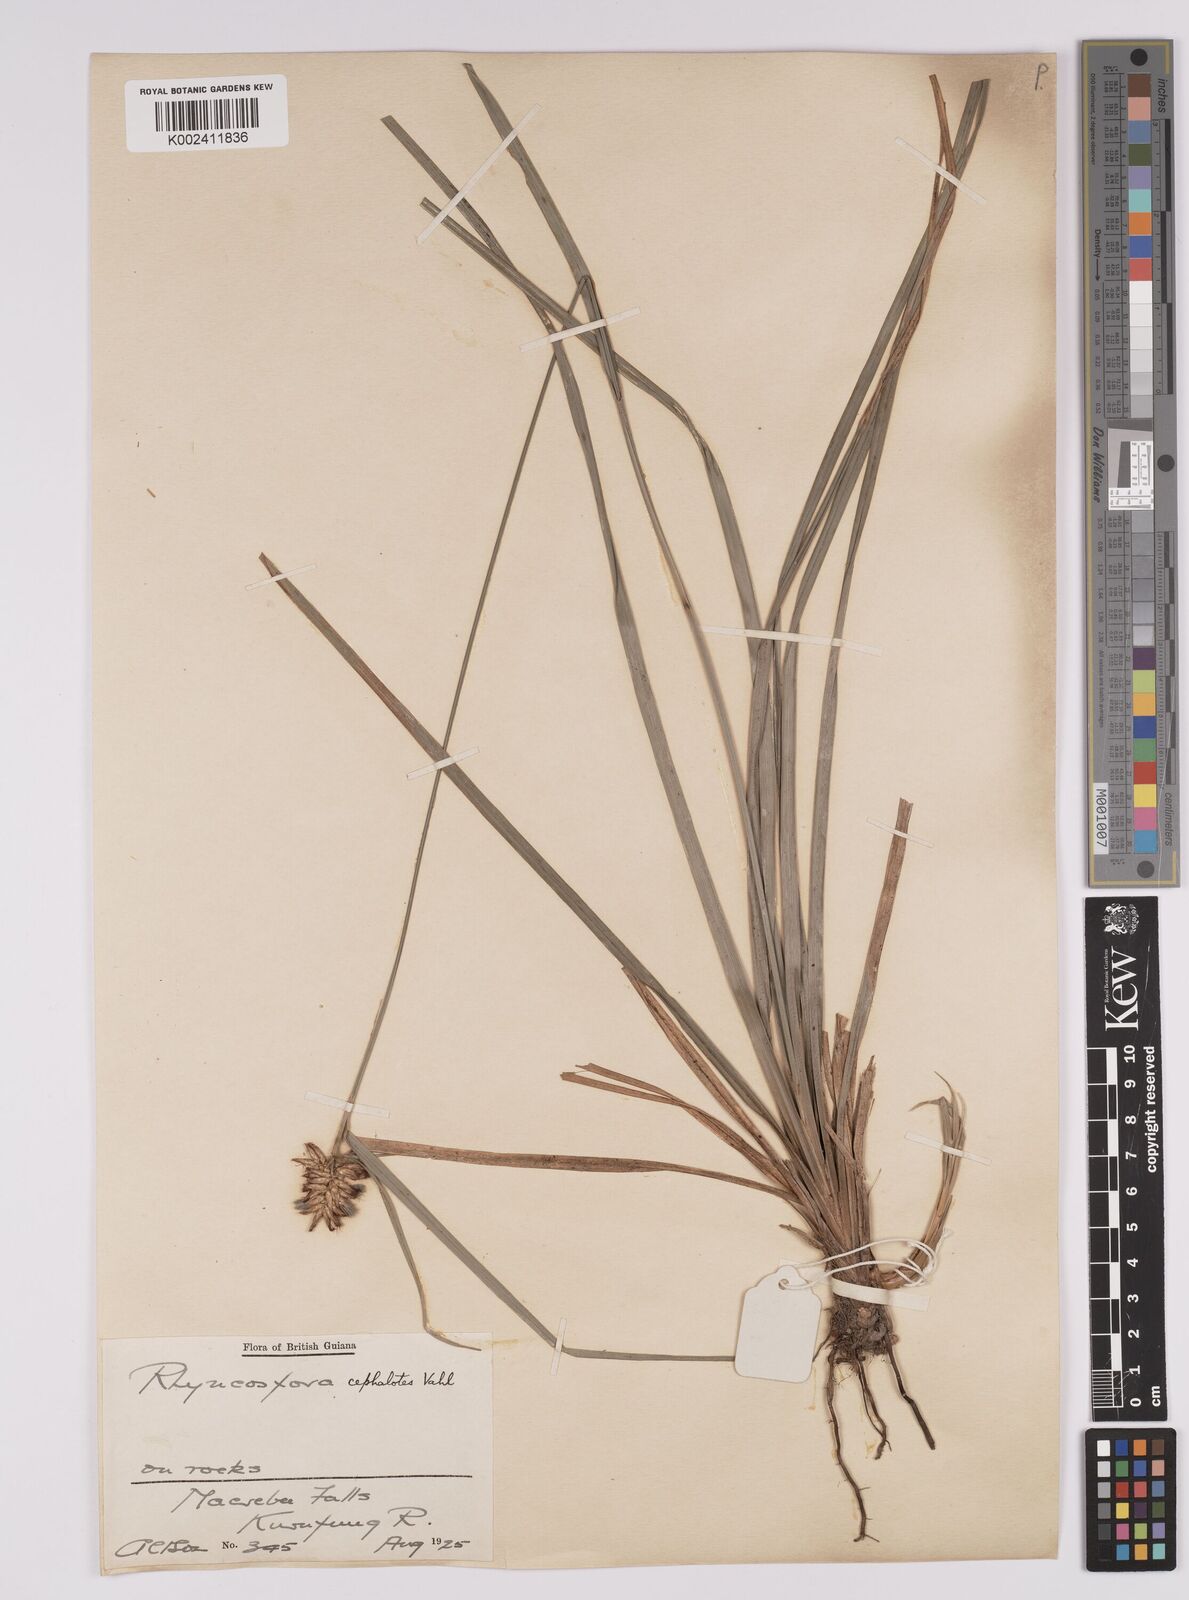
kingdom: Plantae
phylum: Tracheophyta
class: Liliopsida
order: Poales
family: Cyperaceae
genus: Rhynchospora
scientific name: Rhynchospora cephalotes
